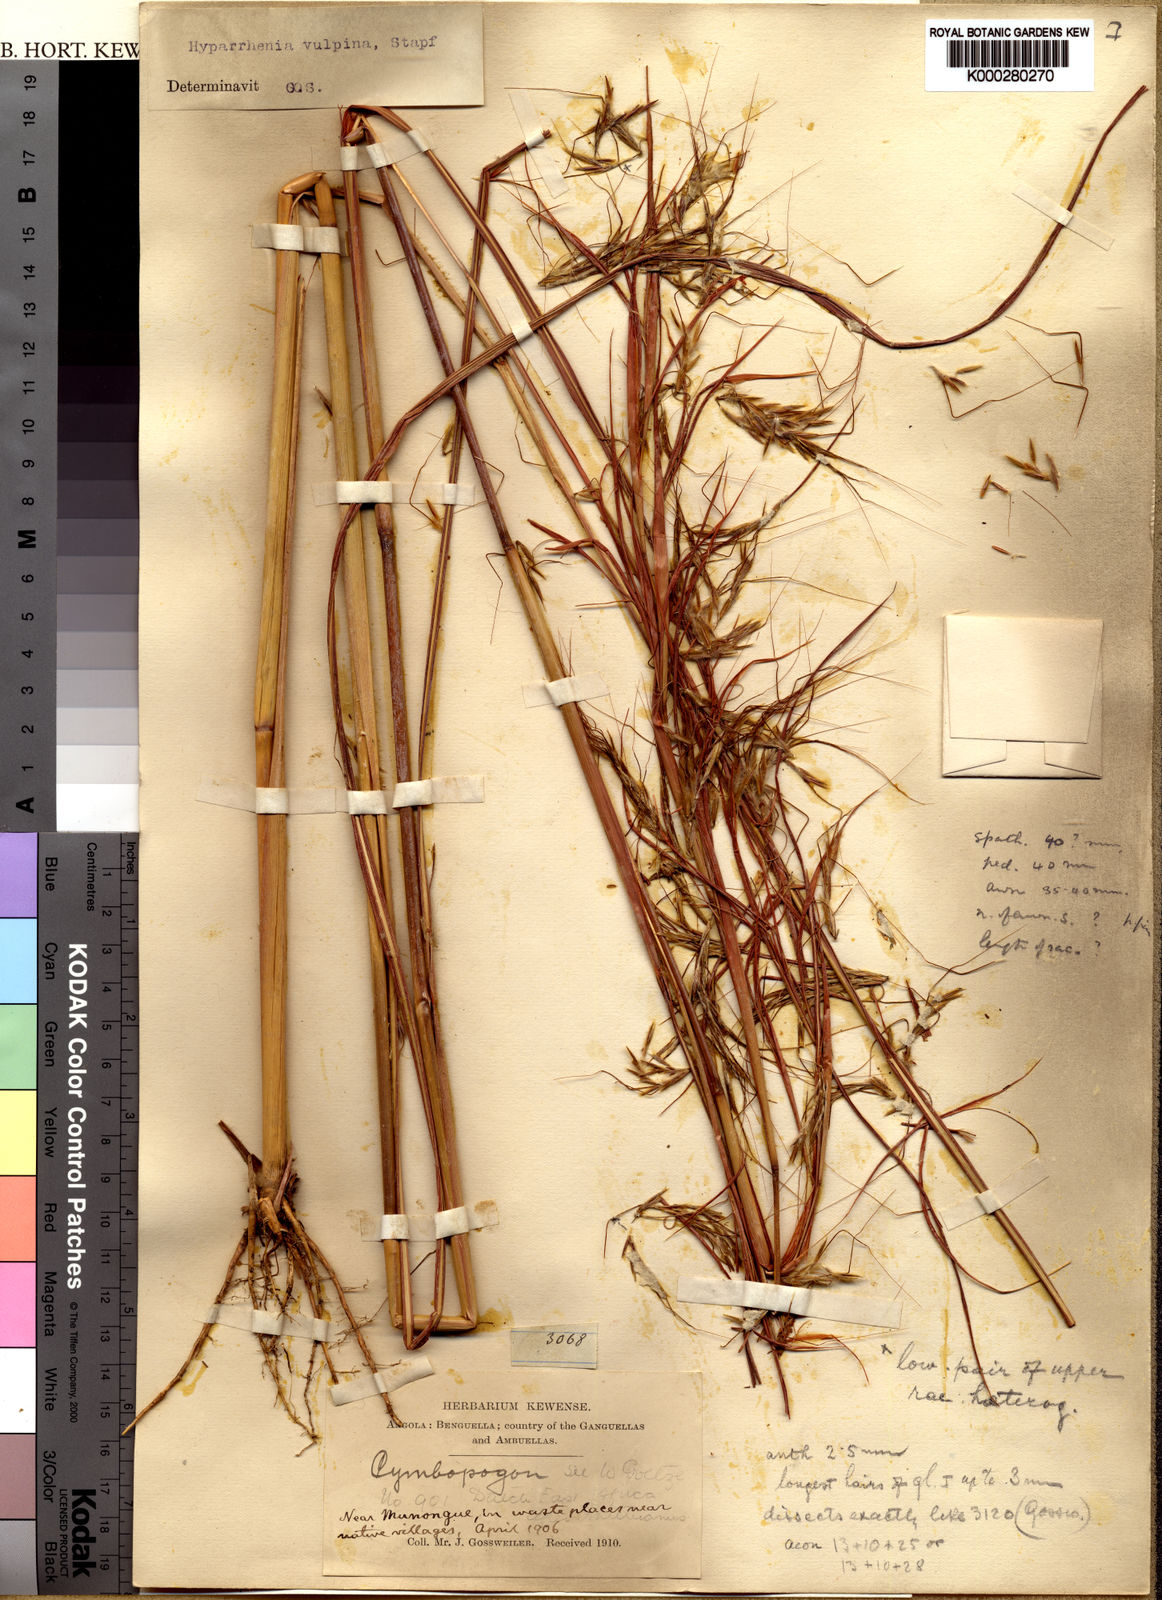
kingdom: Plantae
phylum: Tracheophyta
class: Liliopsida
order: Poales
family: Poaceae
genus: Hyparrhenia
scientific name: Hyparrhenia nyassae
